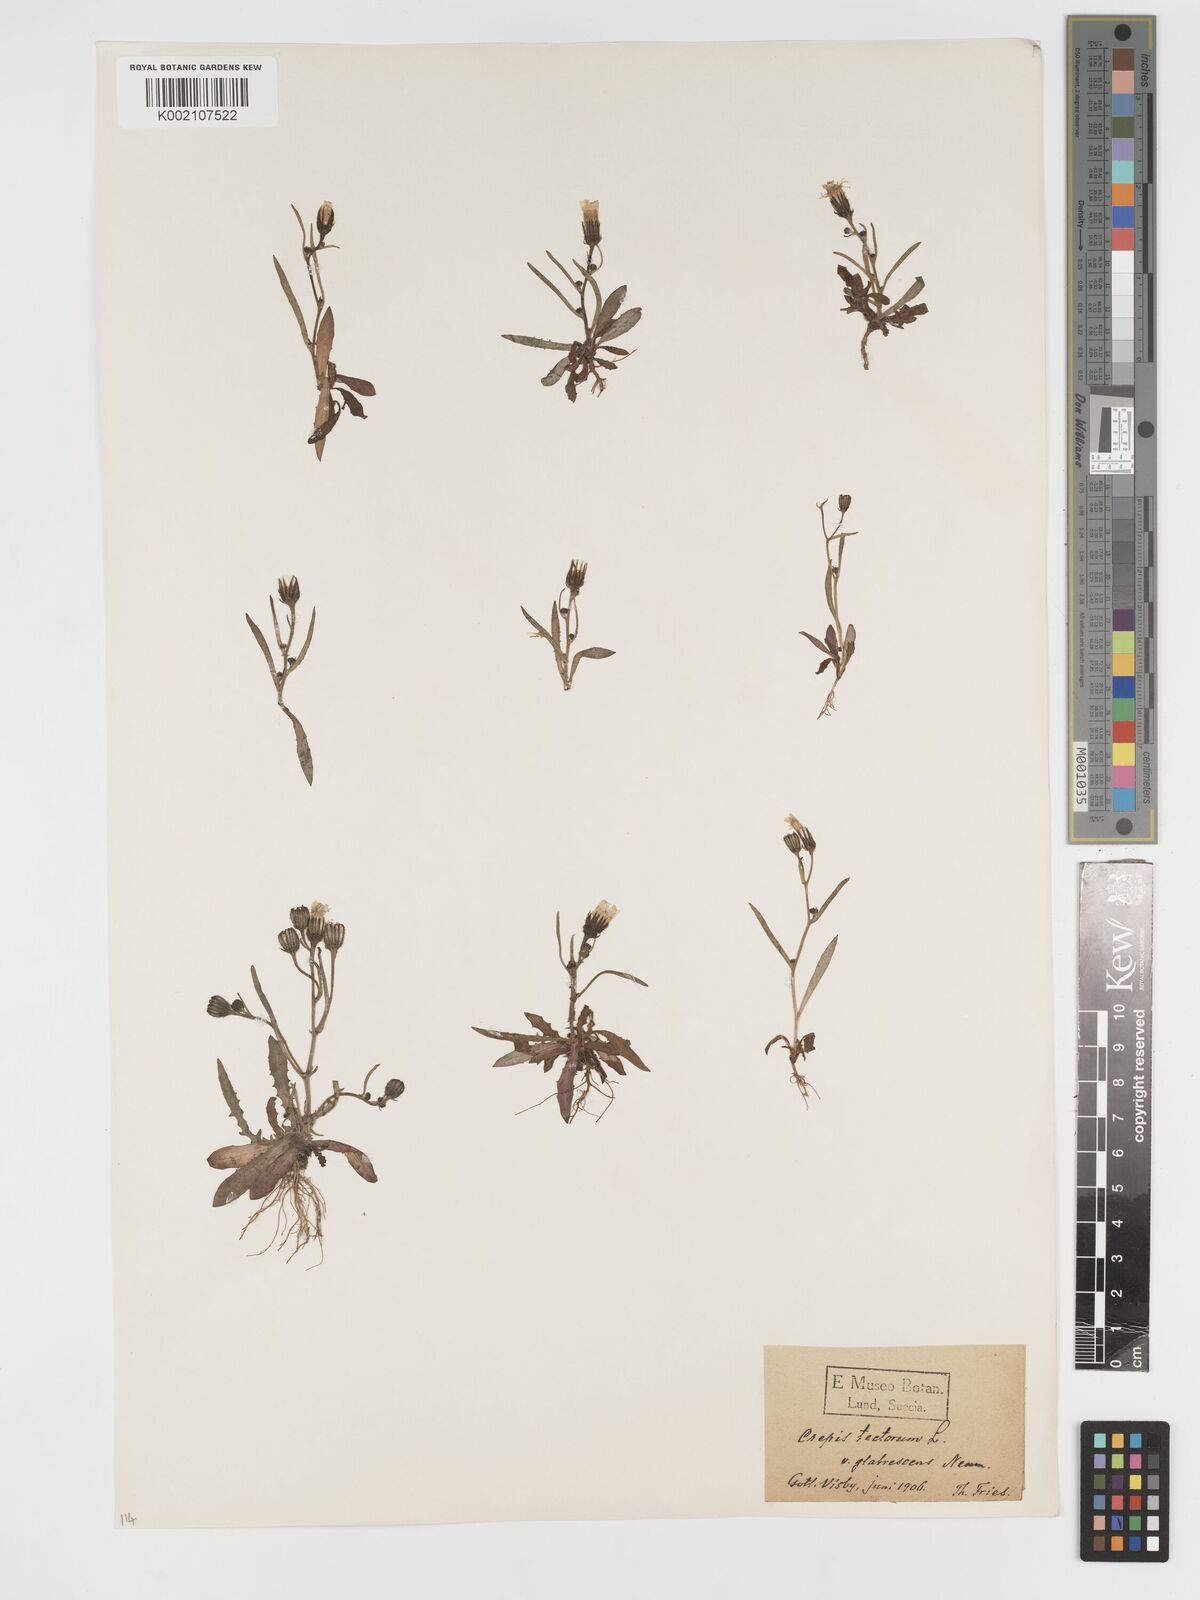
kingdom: Plantae
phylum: Tracheophyta
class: Magnoliopsida
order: Asterales
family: Asteraceae
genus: Crepis
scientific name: Crepis tectorum
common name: Narrow-leaved hawk's-beard
